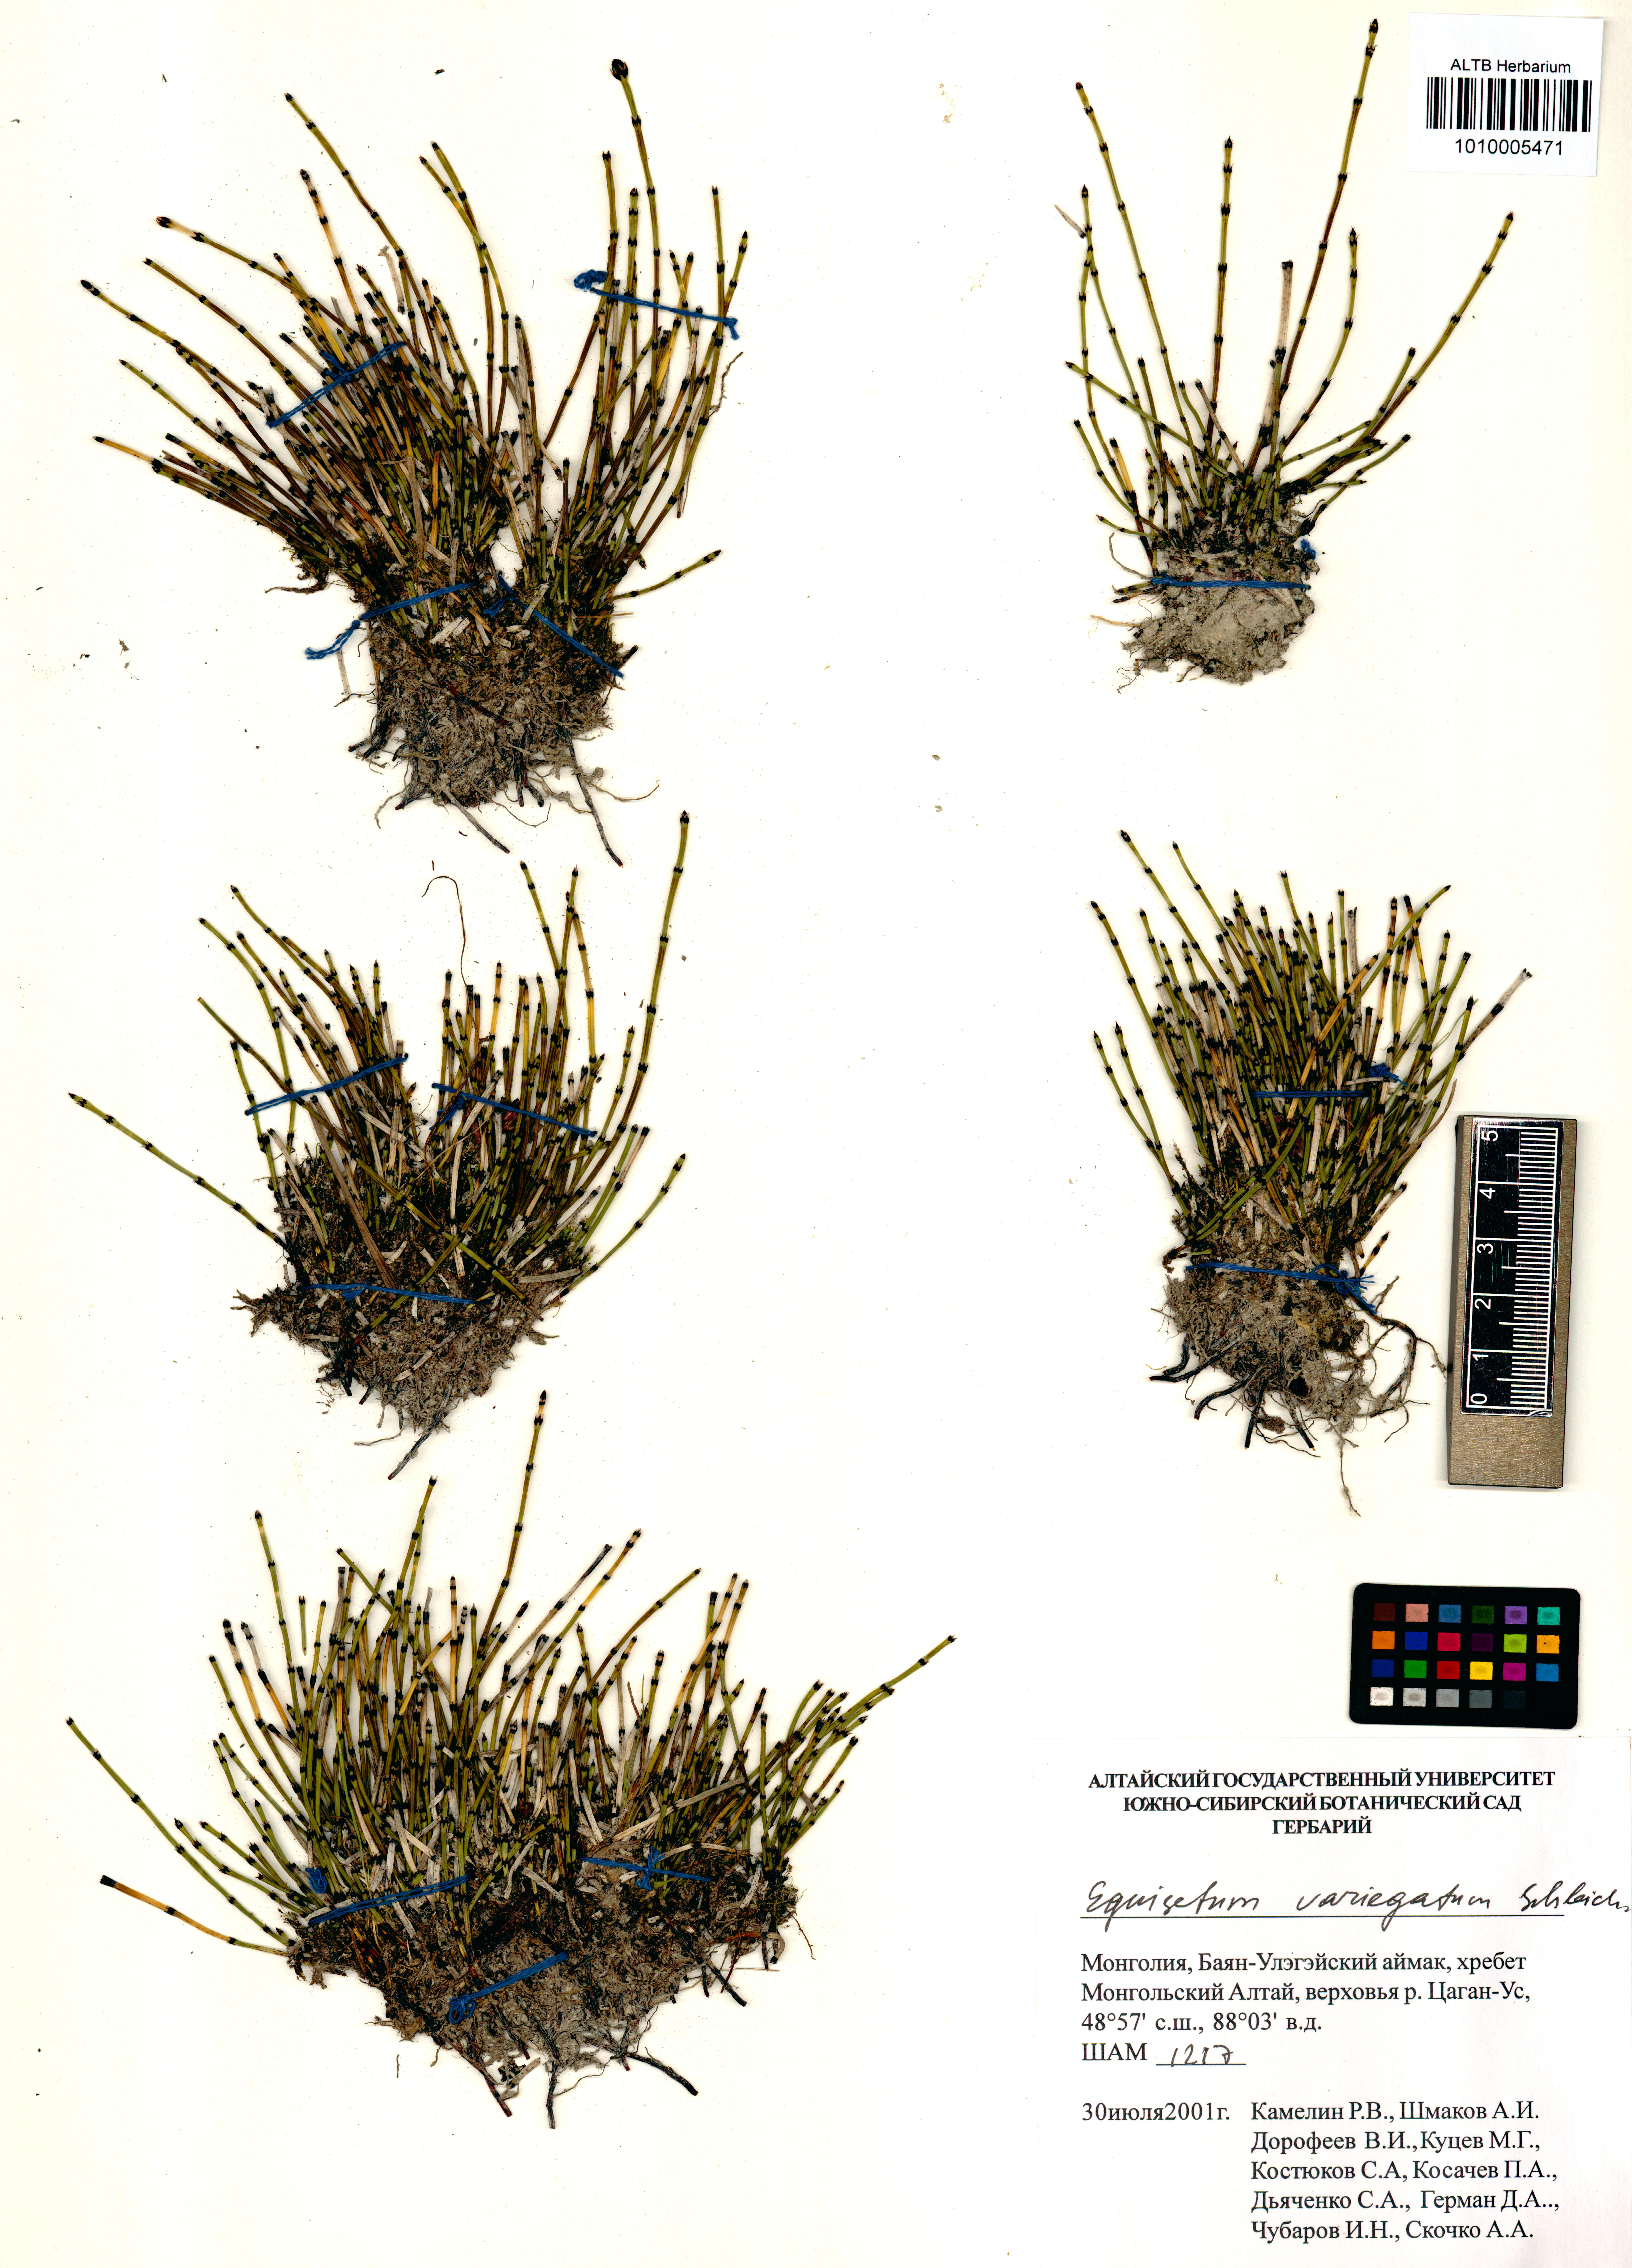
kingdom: Plantae
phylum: Tracheophyta
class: Polypodiopsida
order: Equisetales
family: Equisetaceae
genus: Equisetum
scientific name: Equisetum variegatum
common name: Variegated horsetail
